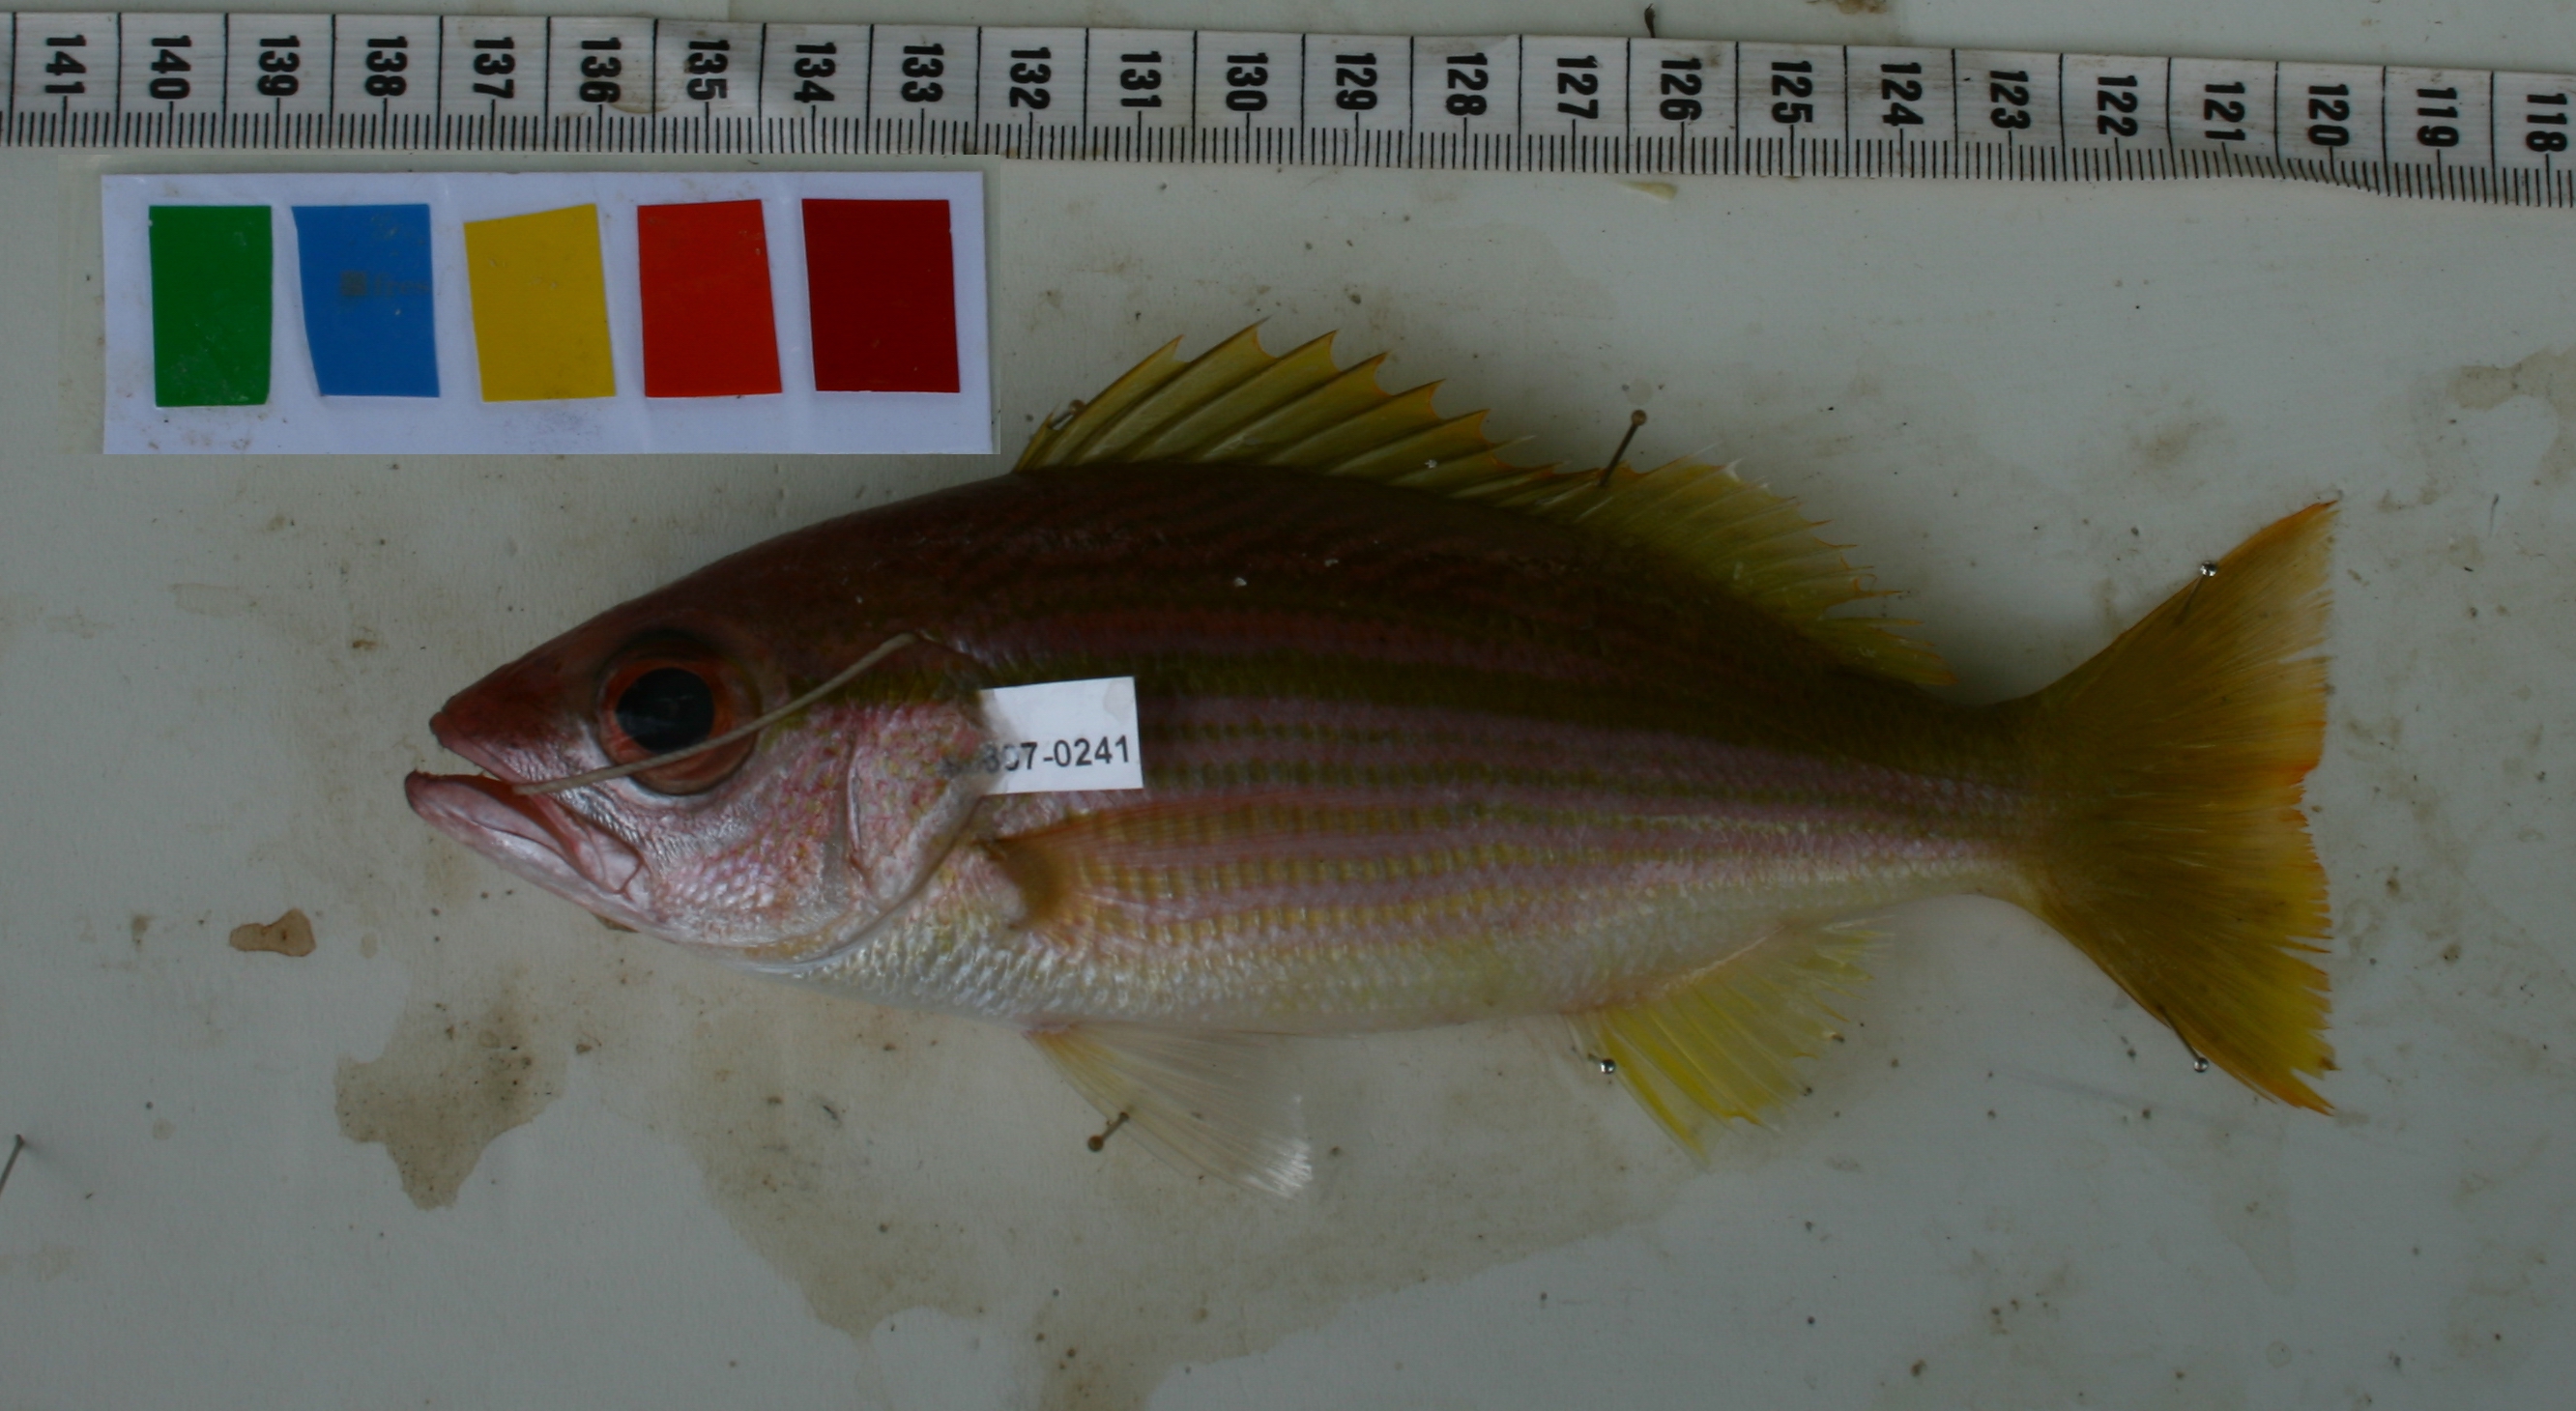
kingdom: Animalia
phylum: Chordata
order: Perciformes
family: Lutjanidae
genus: Lutjanus
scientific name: Lutjanus lutjanus
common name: Bigeye snapper
